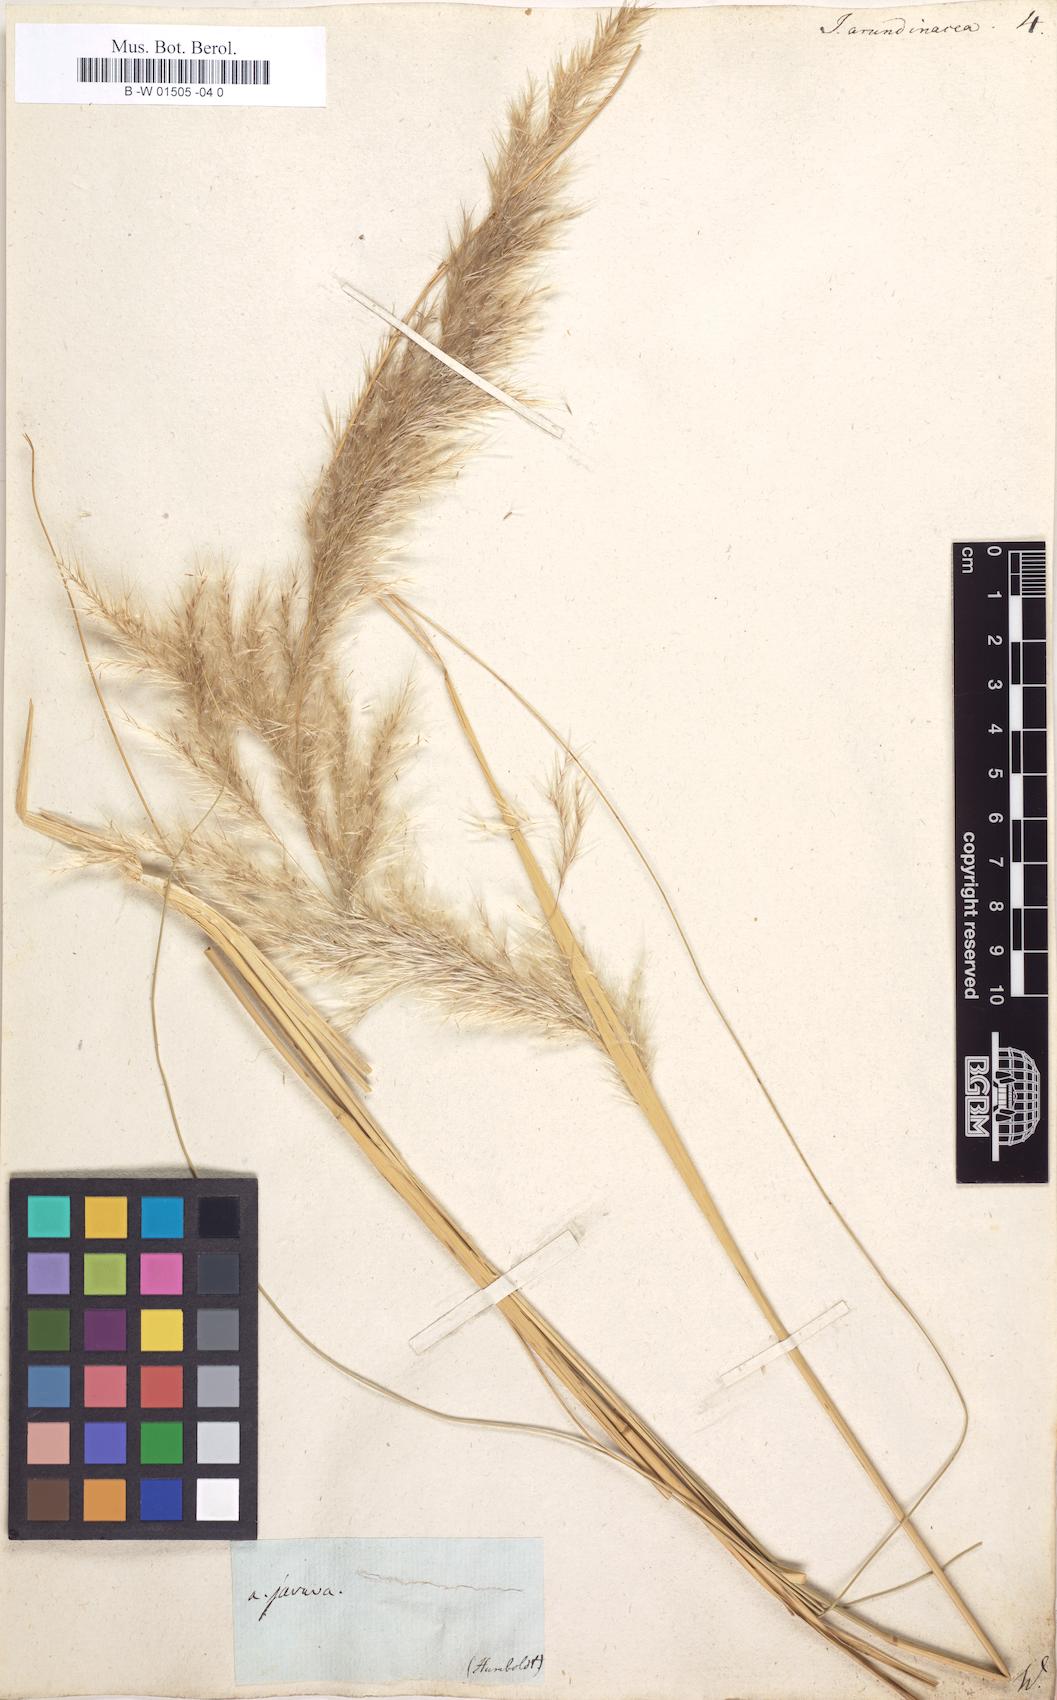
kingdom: Plantae
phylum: Tracheophyta
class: Liliopsida
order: Poales
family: Poaceae
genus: Jarava
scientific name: Jarava ichu
